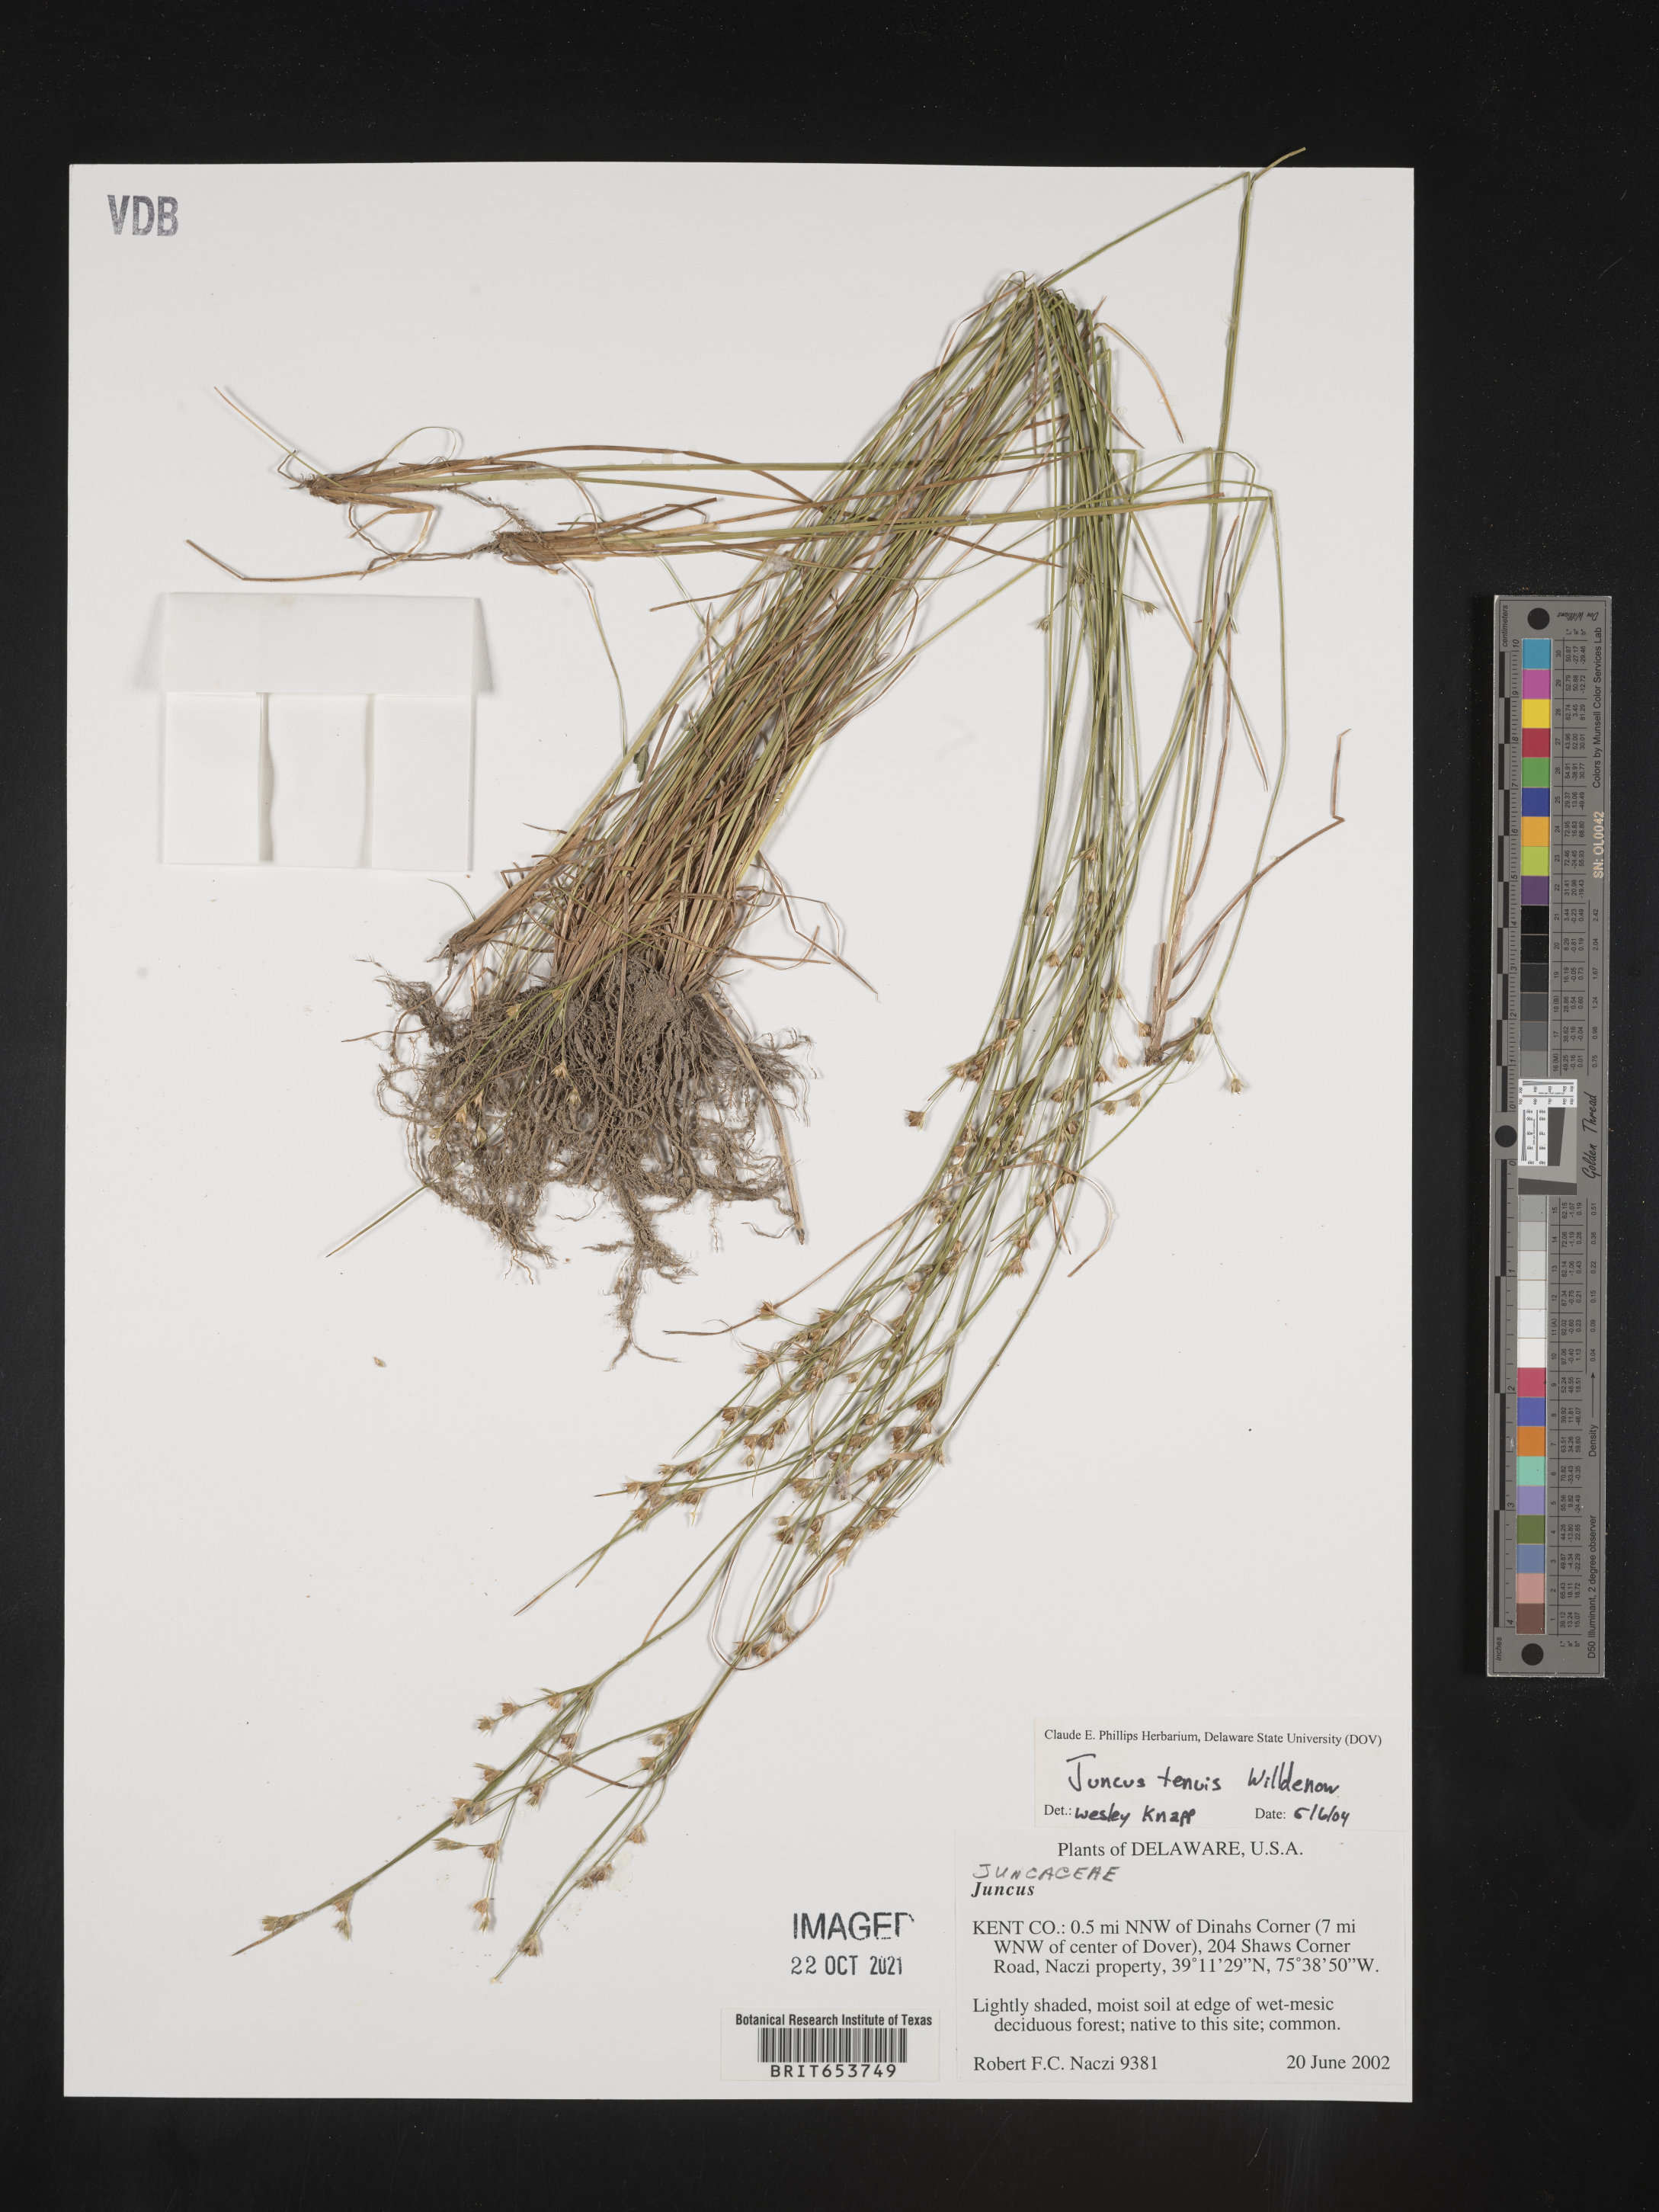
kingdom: Plantae
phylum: Tracheophyta
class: Liliopsida
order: Poales
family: Juncaceae
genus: Juncus
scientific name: Juncus tenuis
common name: Slender rush
